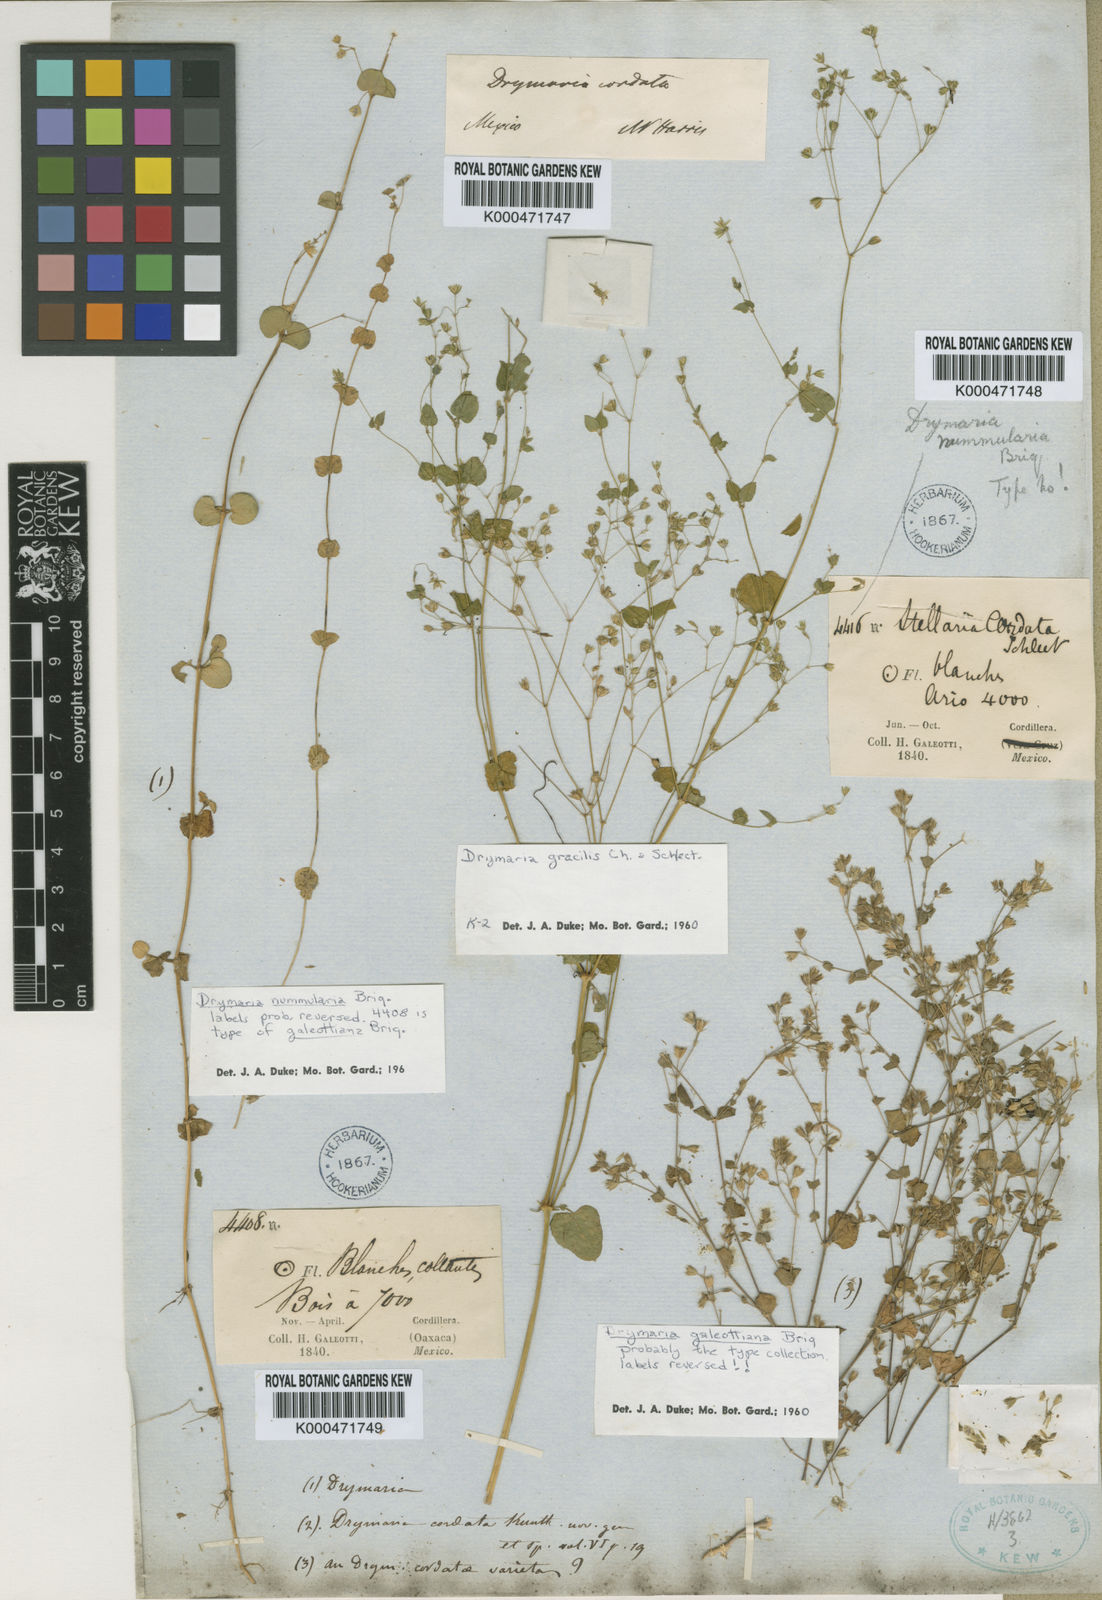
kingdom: Plantae
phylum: Tracheophyta
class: Magnoliopsida
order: Caryophyllales
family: Caryophyllaceae
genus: Drymaria
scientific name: Drymaria villosa
